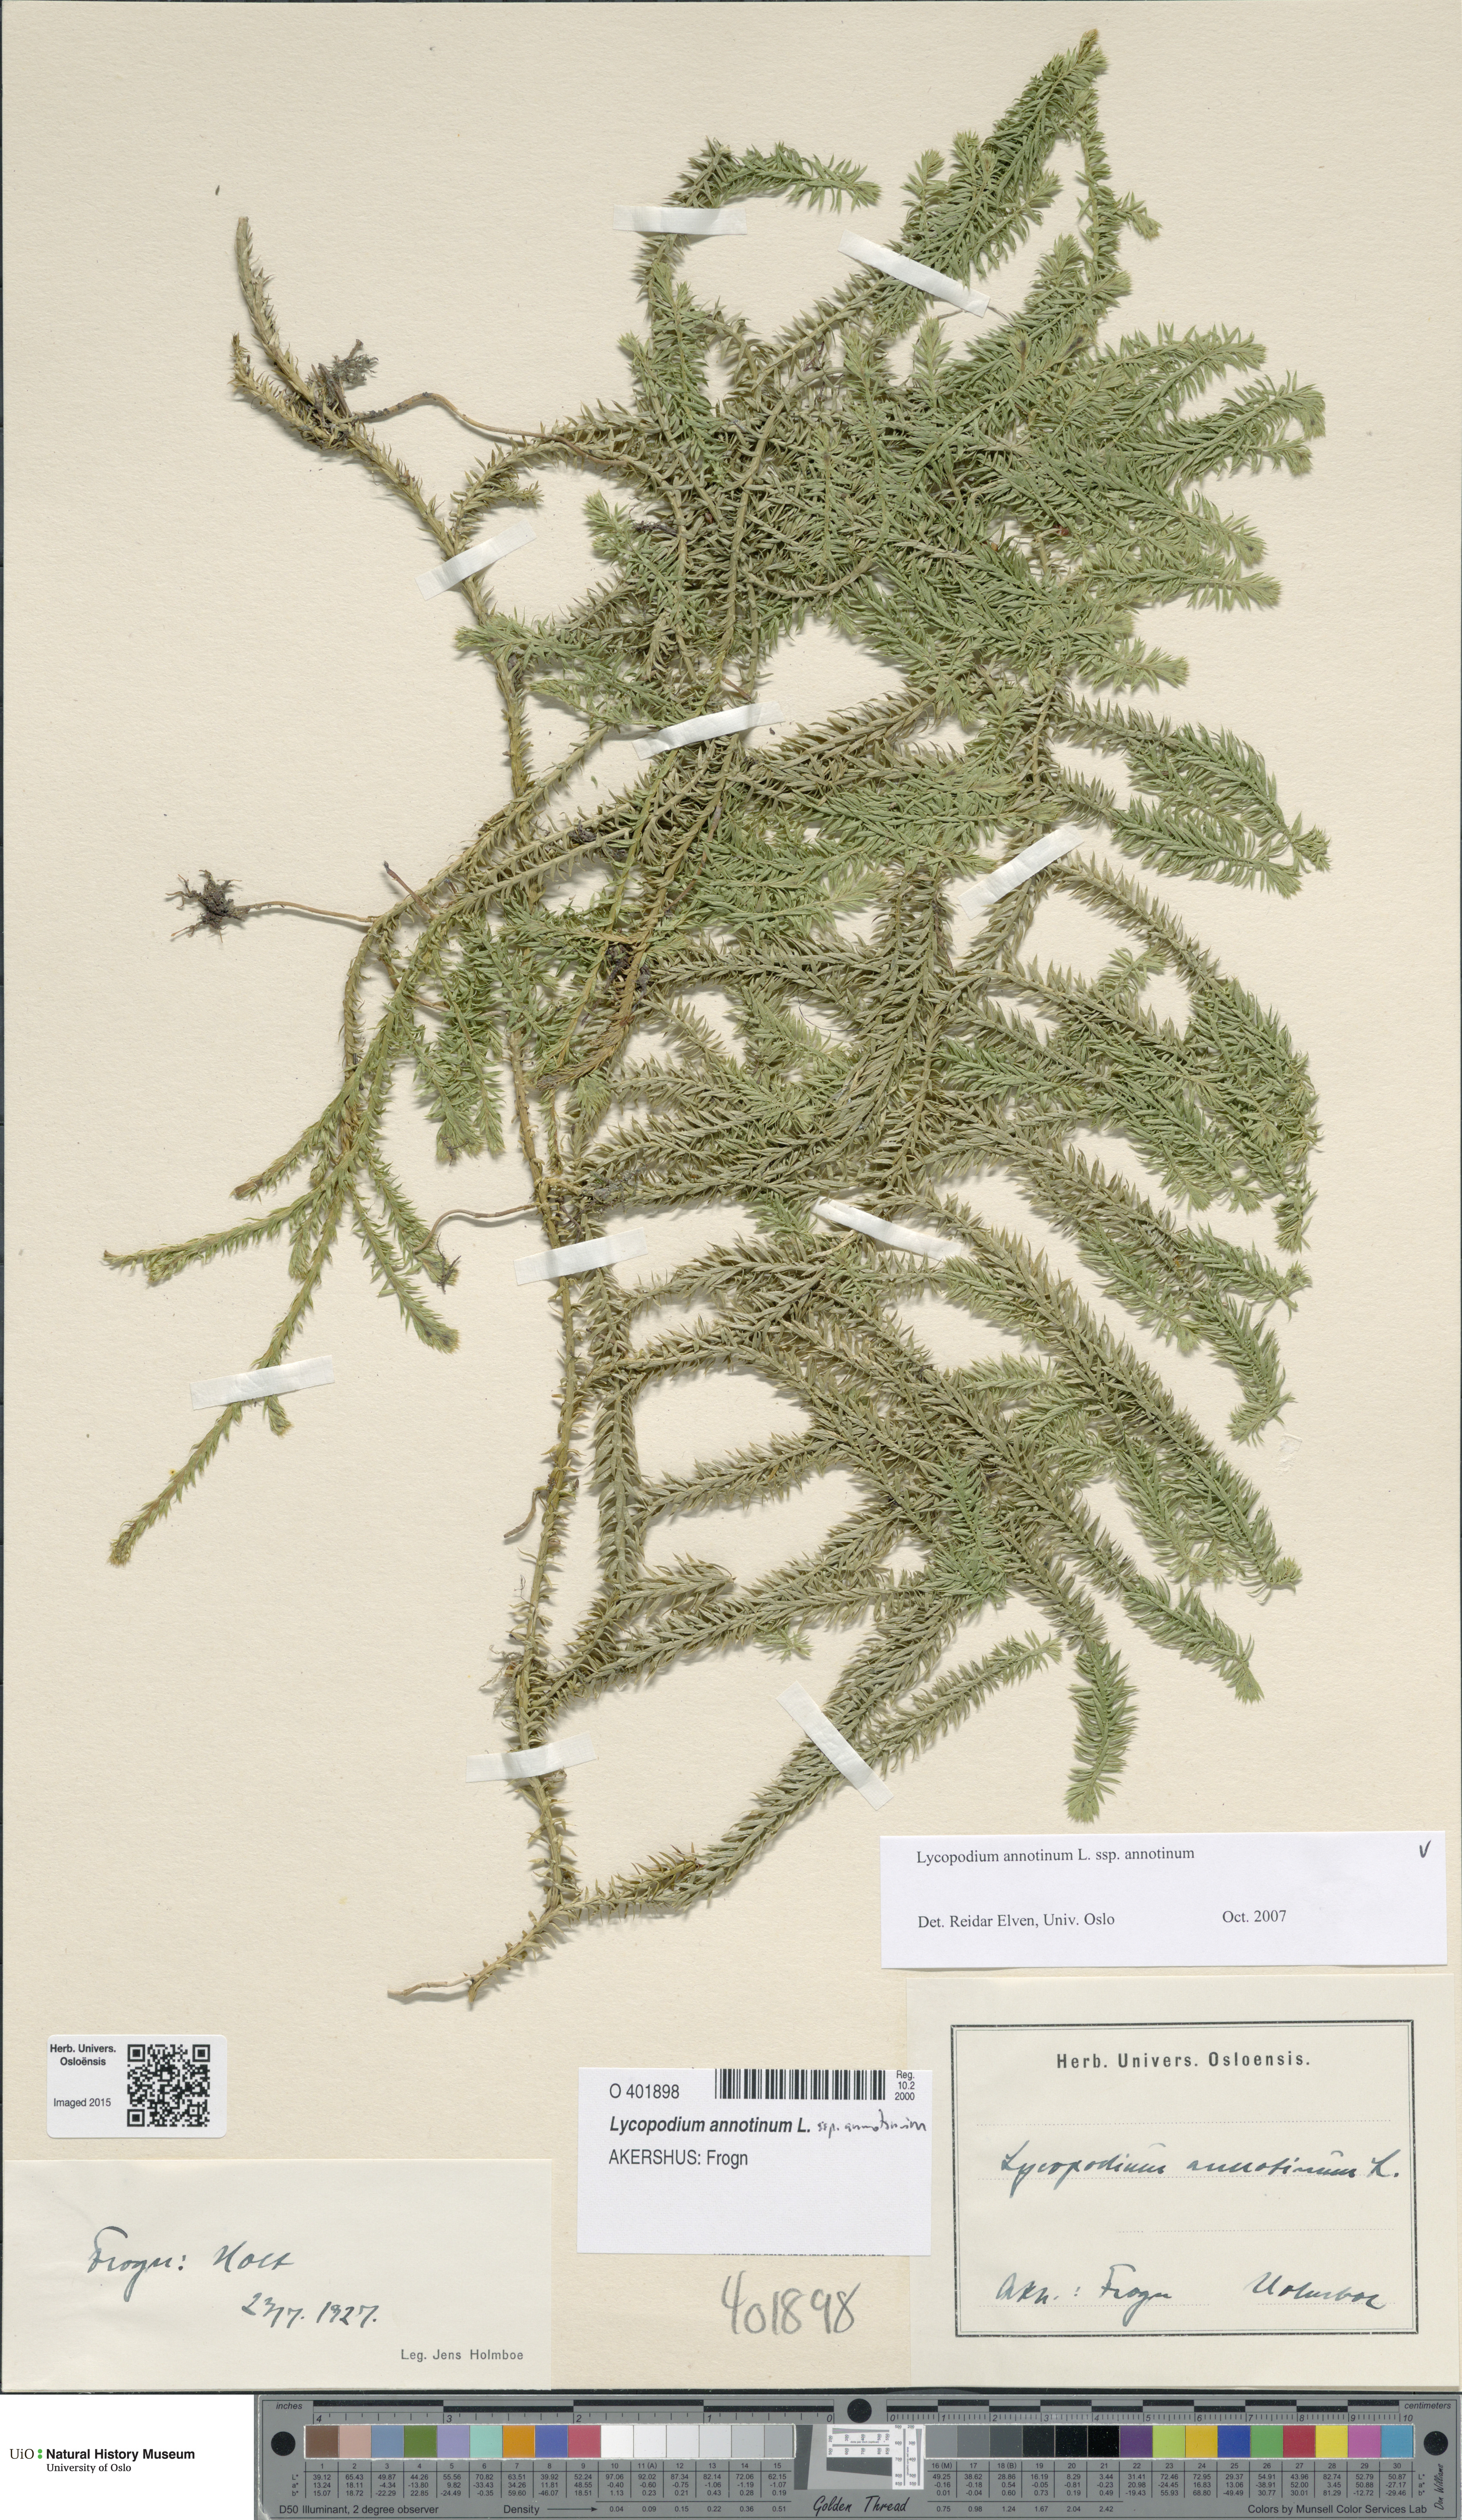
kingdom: Plantae
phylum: Tracheophyta
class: Lycopodiopsida
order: Lycopodiales
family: Lycopodiaceae
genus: Spinulum
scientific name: Spinulum annotinum
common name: Interrupted club-moss
